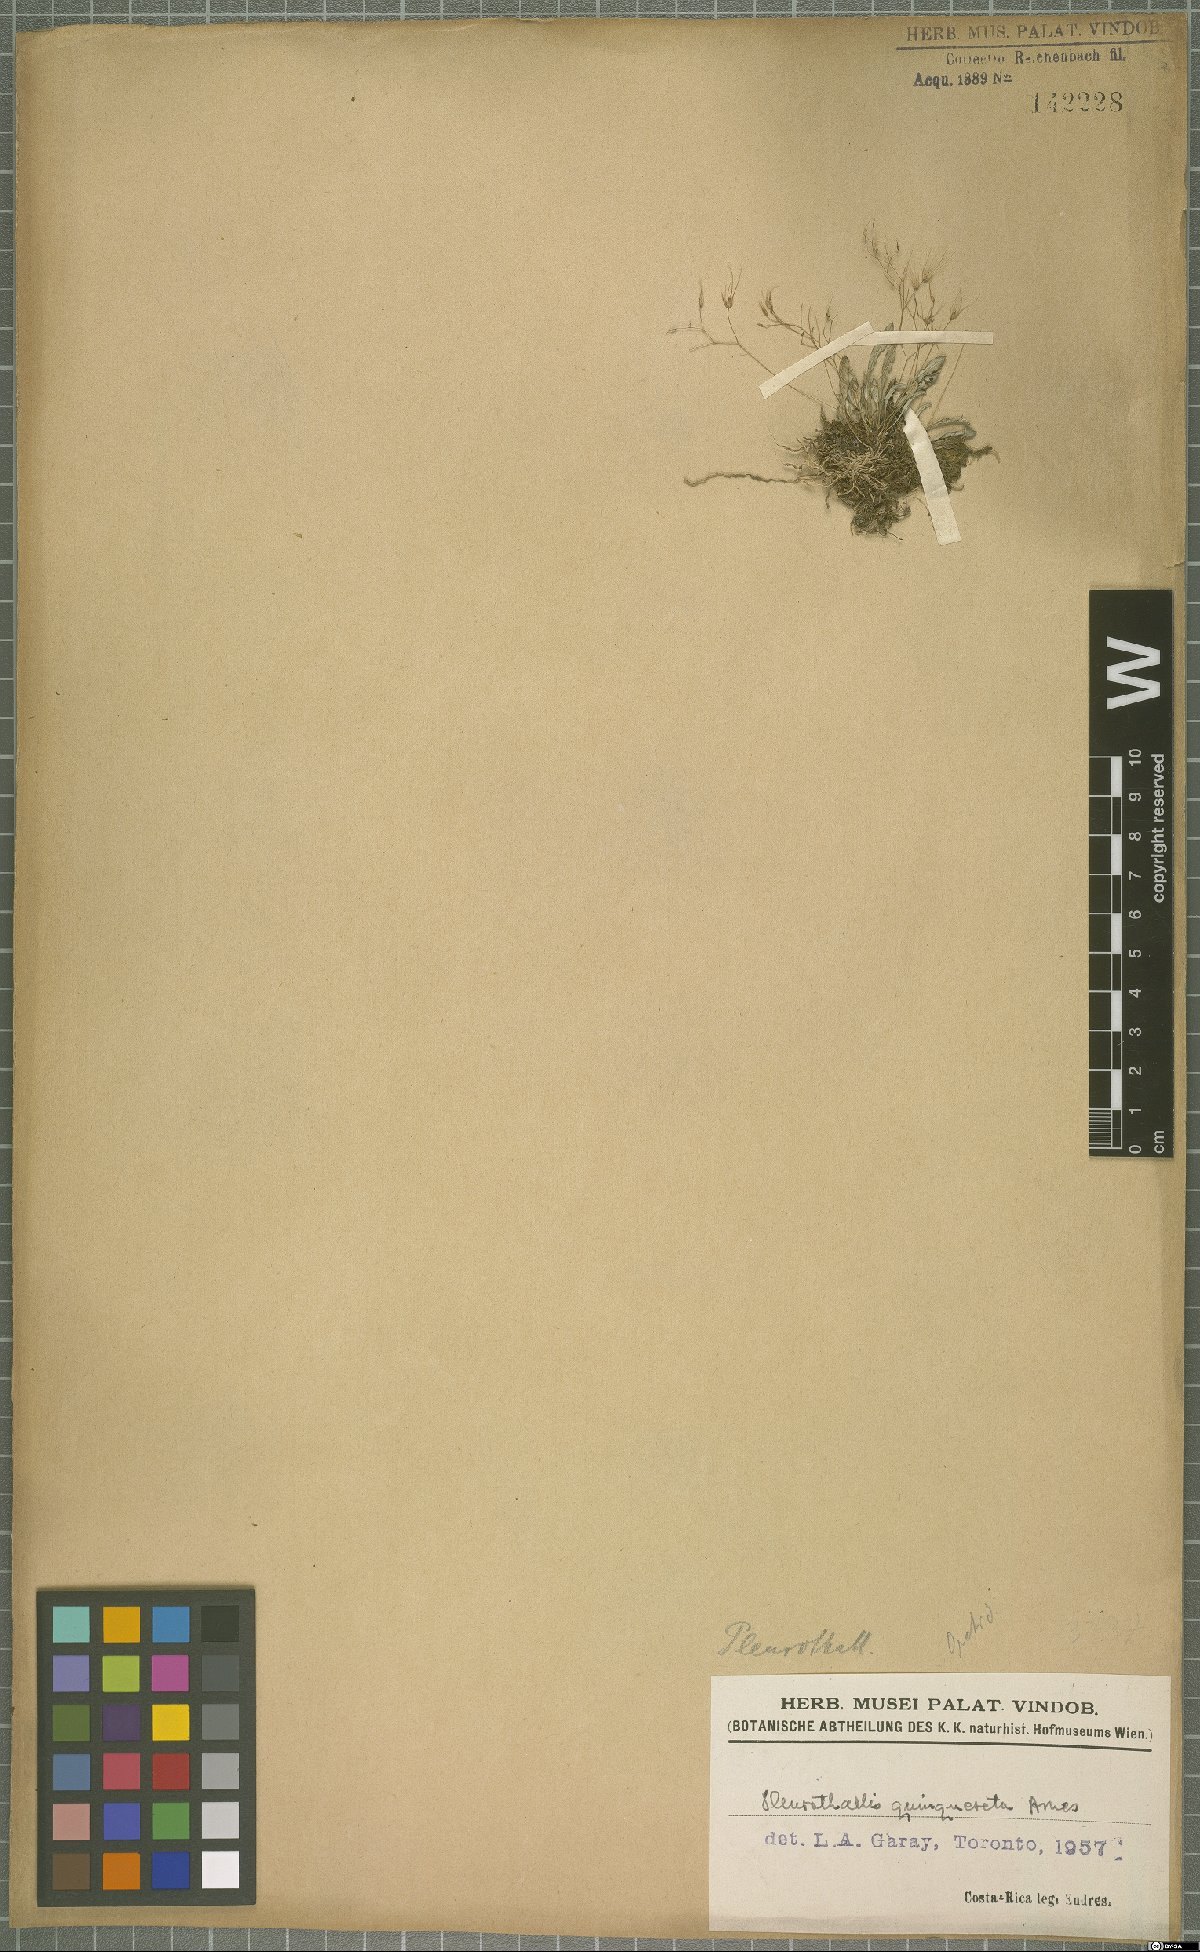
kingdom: Plantae
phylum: Tracheophyta
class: Liliopsida
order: Asparagales
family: Orchidaceae
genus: Muscarella
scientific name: Muscarella quinqueseta
